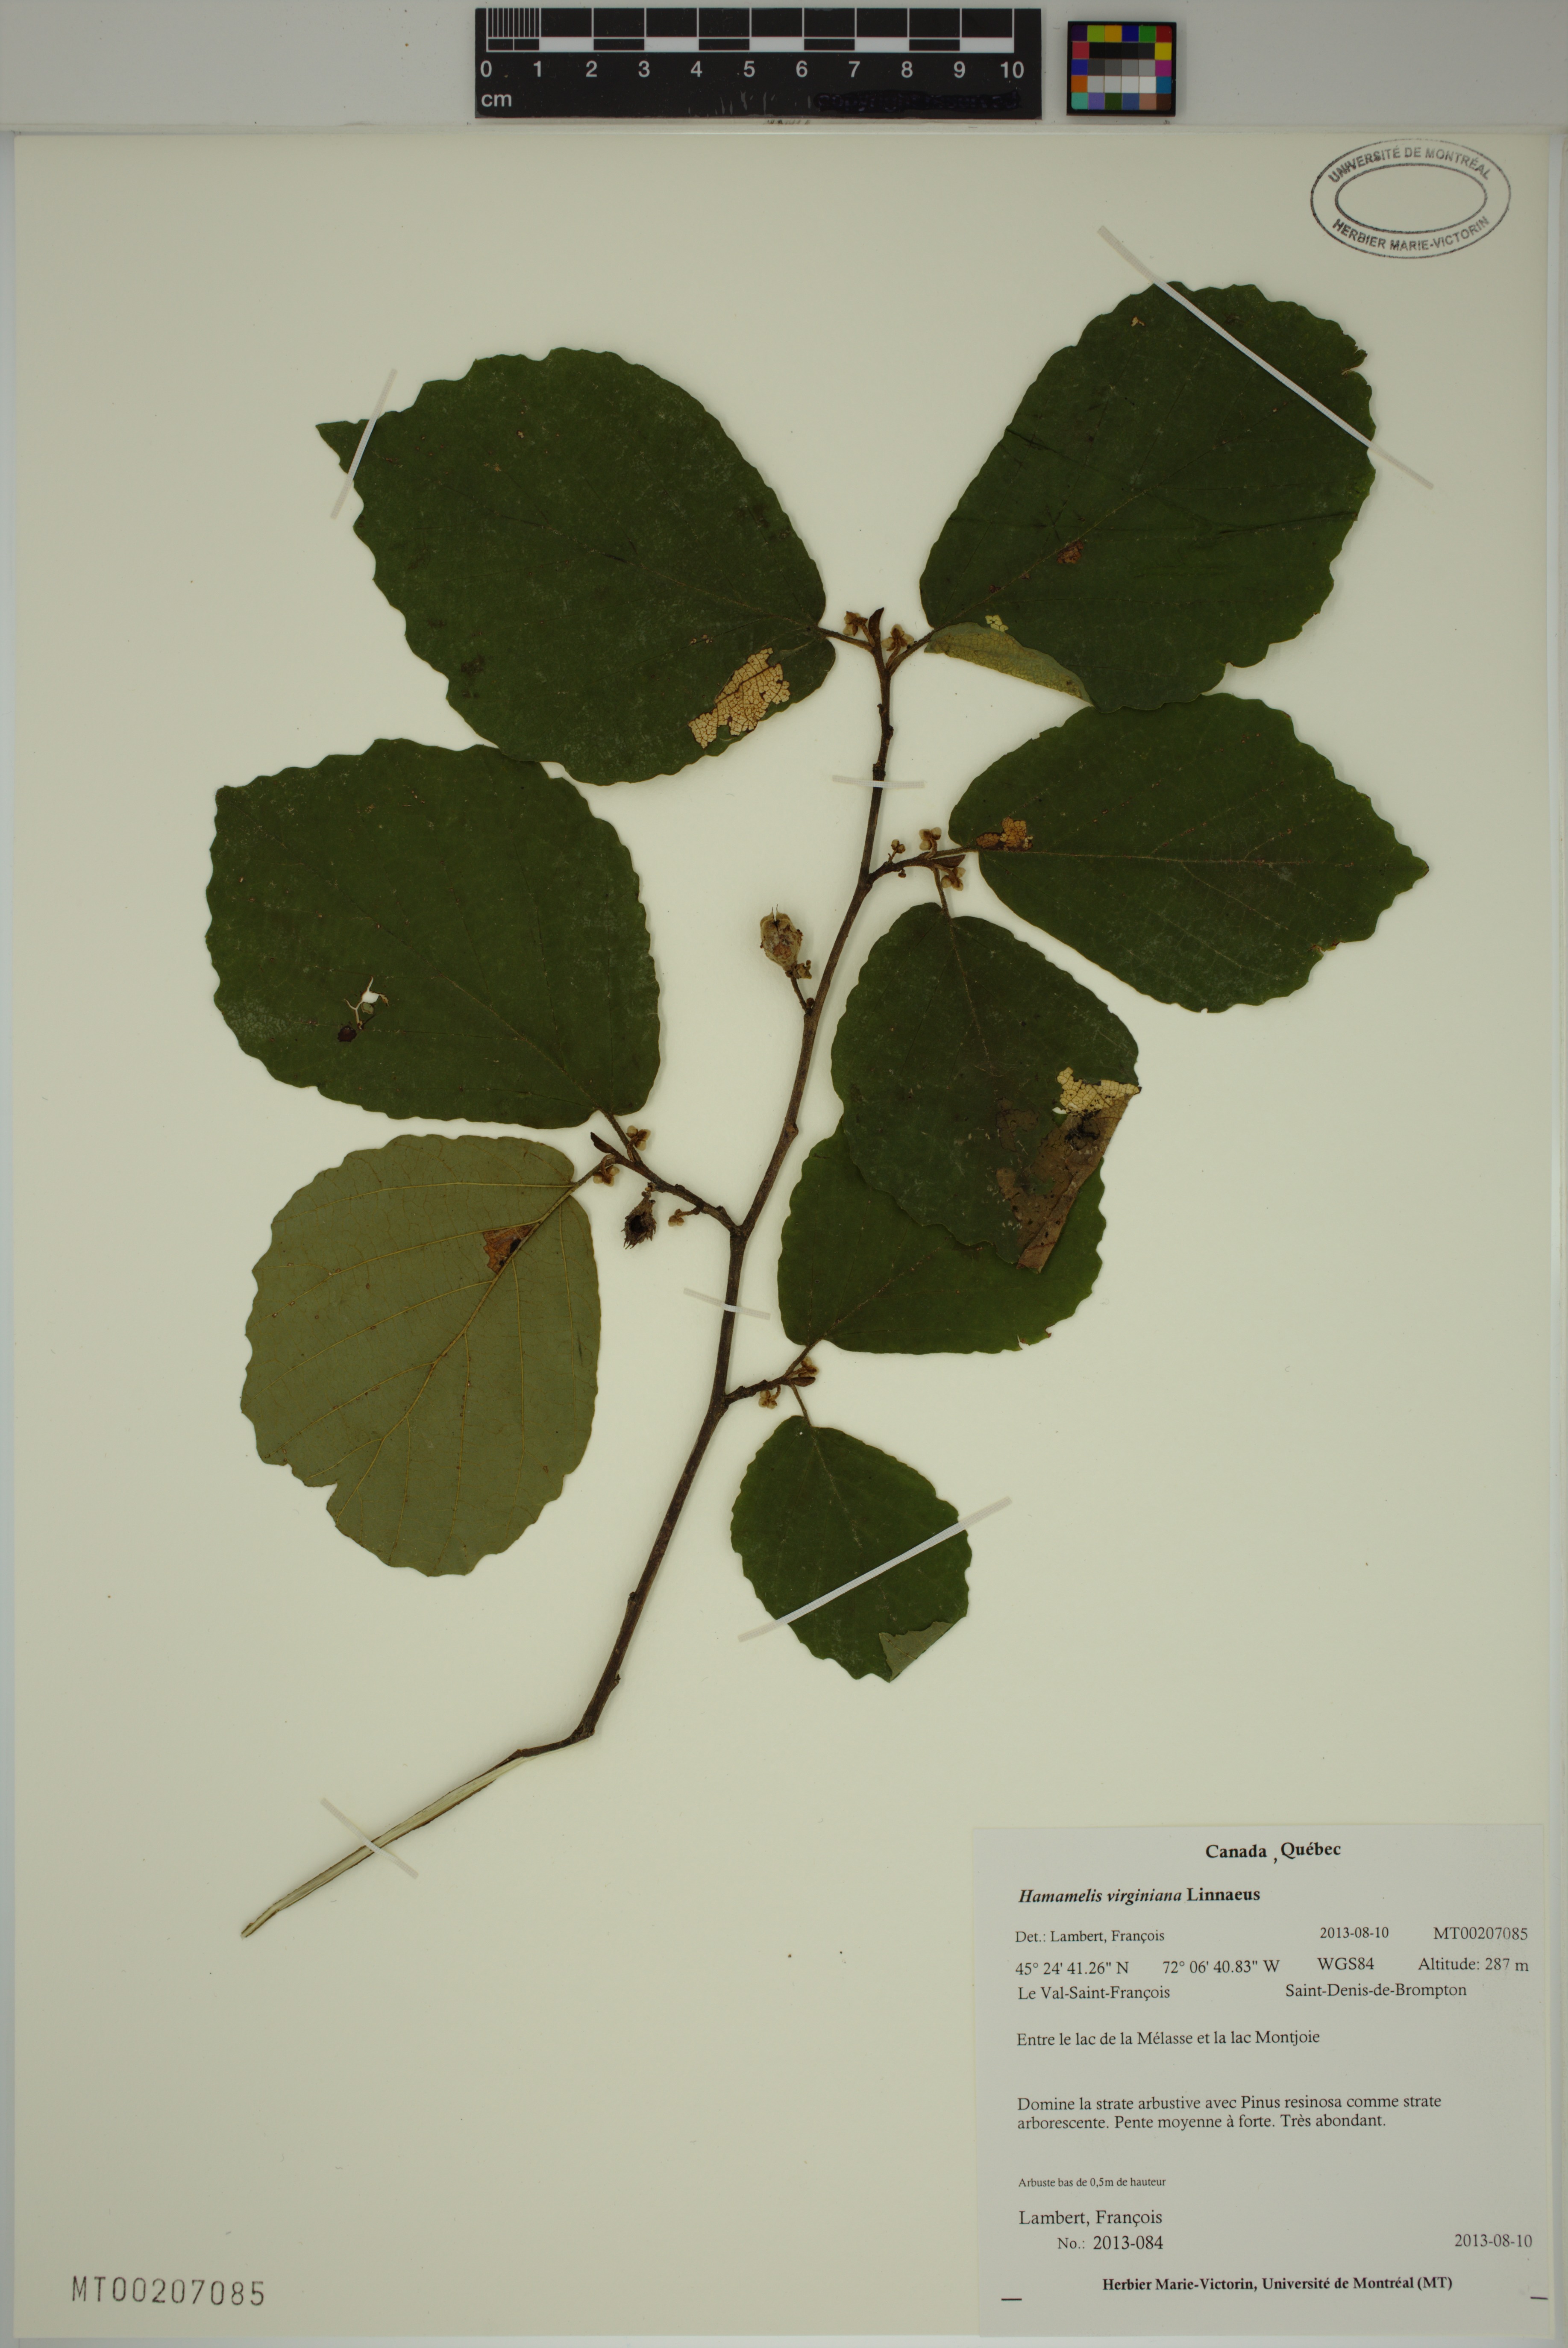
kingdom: Plantae
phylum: Tracheophyta
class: Magnoliopsida
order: Saxifragales
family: Hamamelidaceae
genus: Hamamelis
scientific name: Hamamelis virginiana
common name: Witch-hazel
